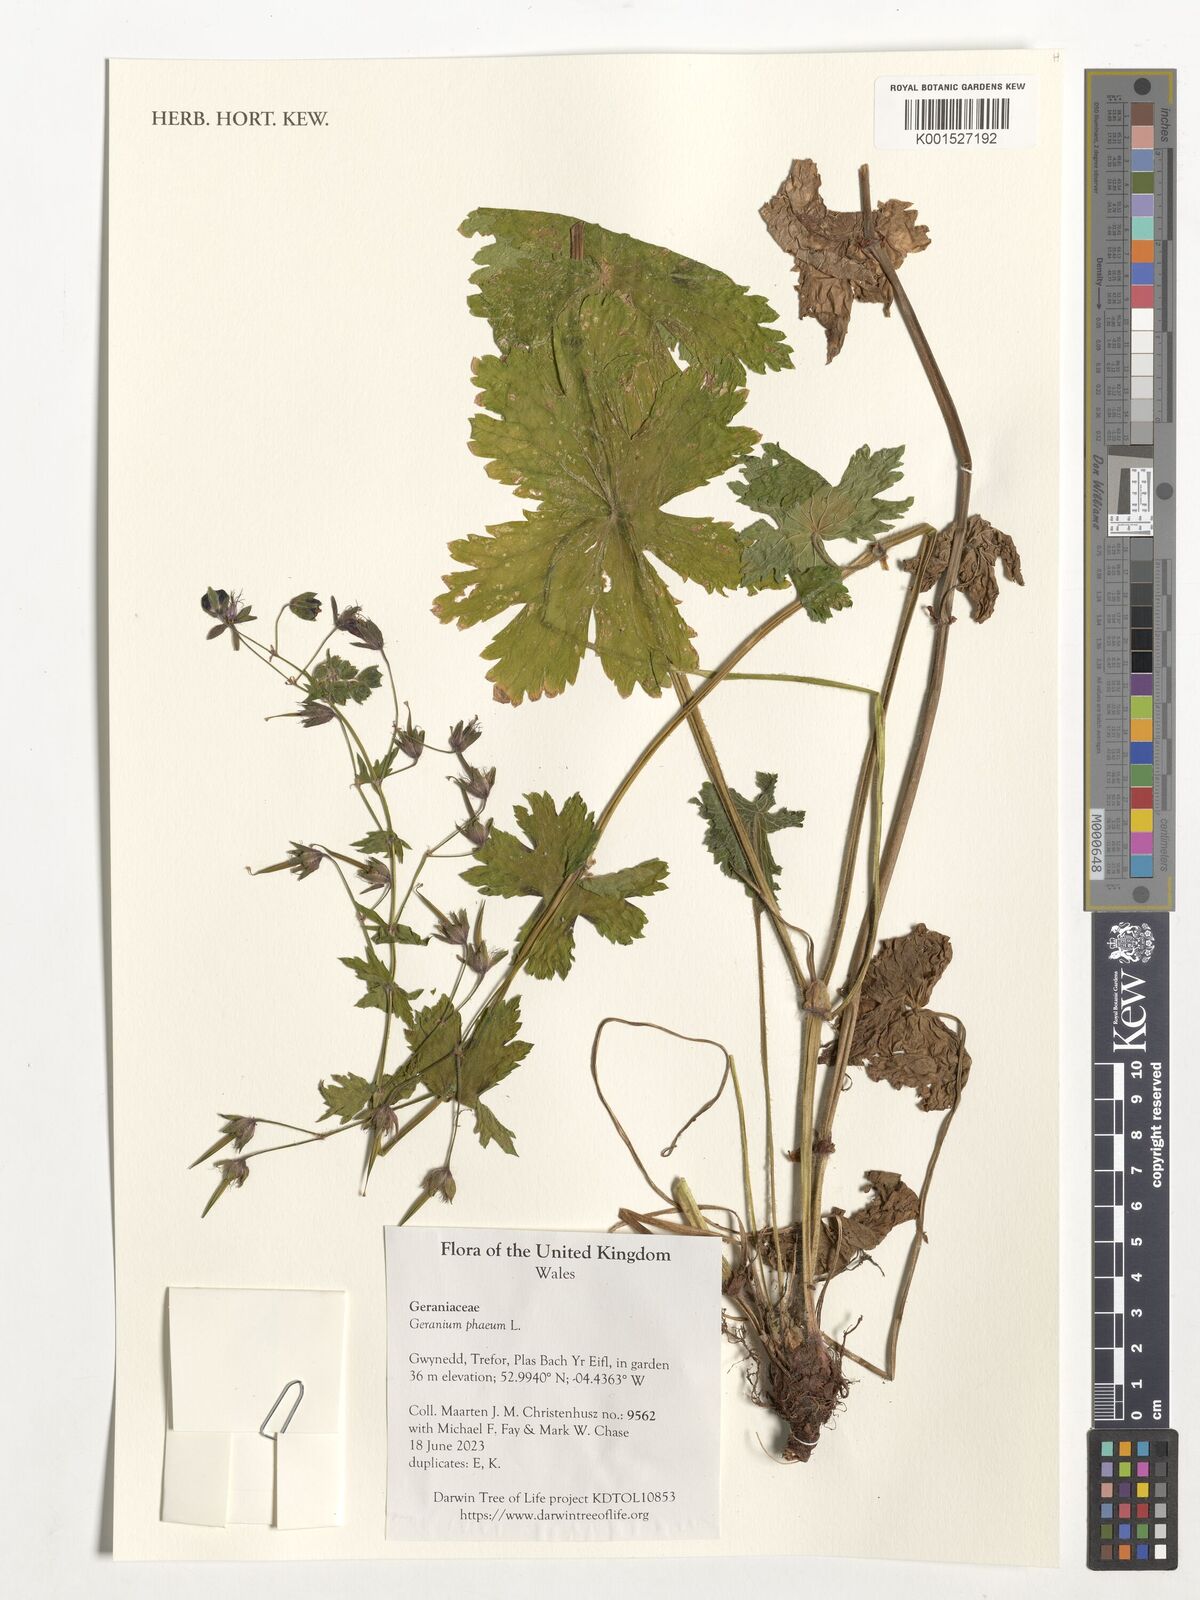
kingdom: Plantae
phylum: Tracheophyta
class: Magnoliopsida
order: Geraniales
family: Geraniaceae
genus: Geranium
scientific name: Geranium phaeum
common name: Dusky crane's-bill
